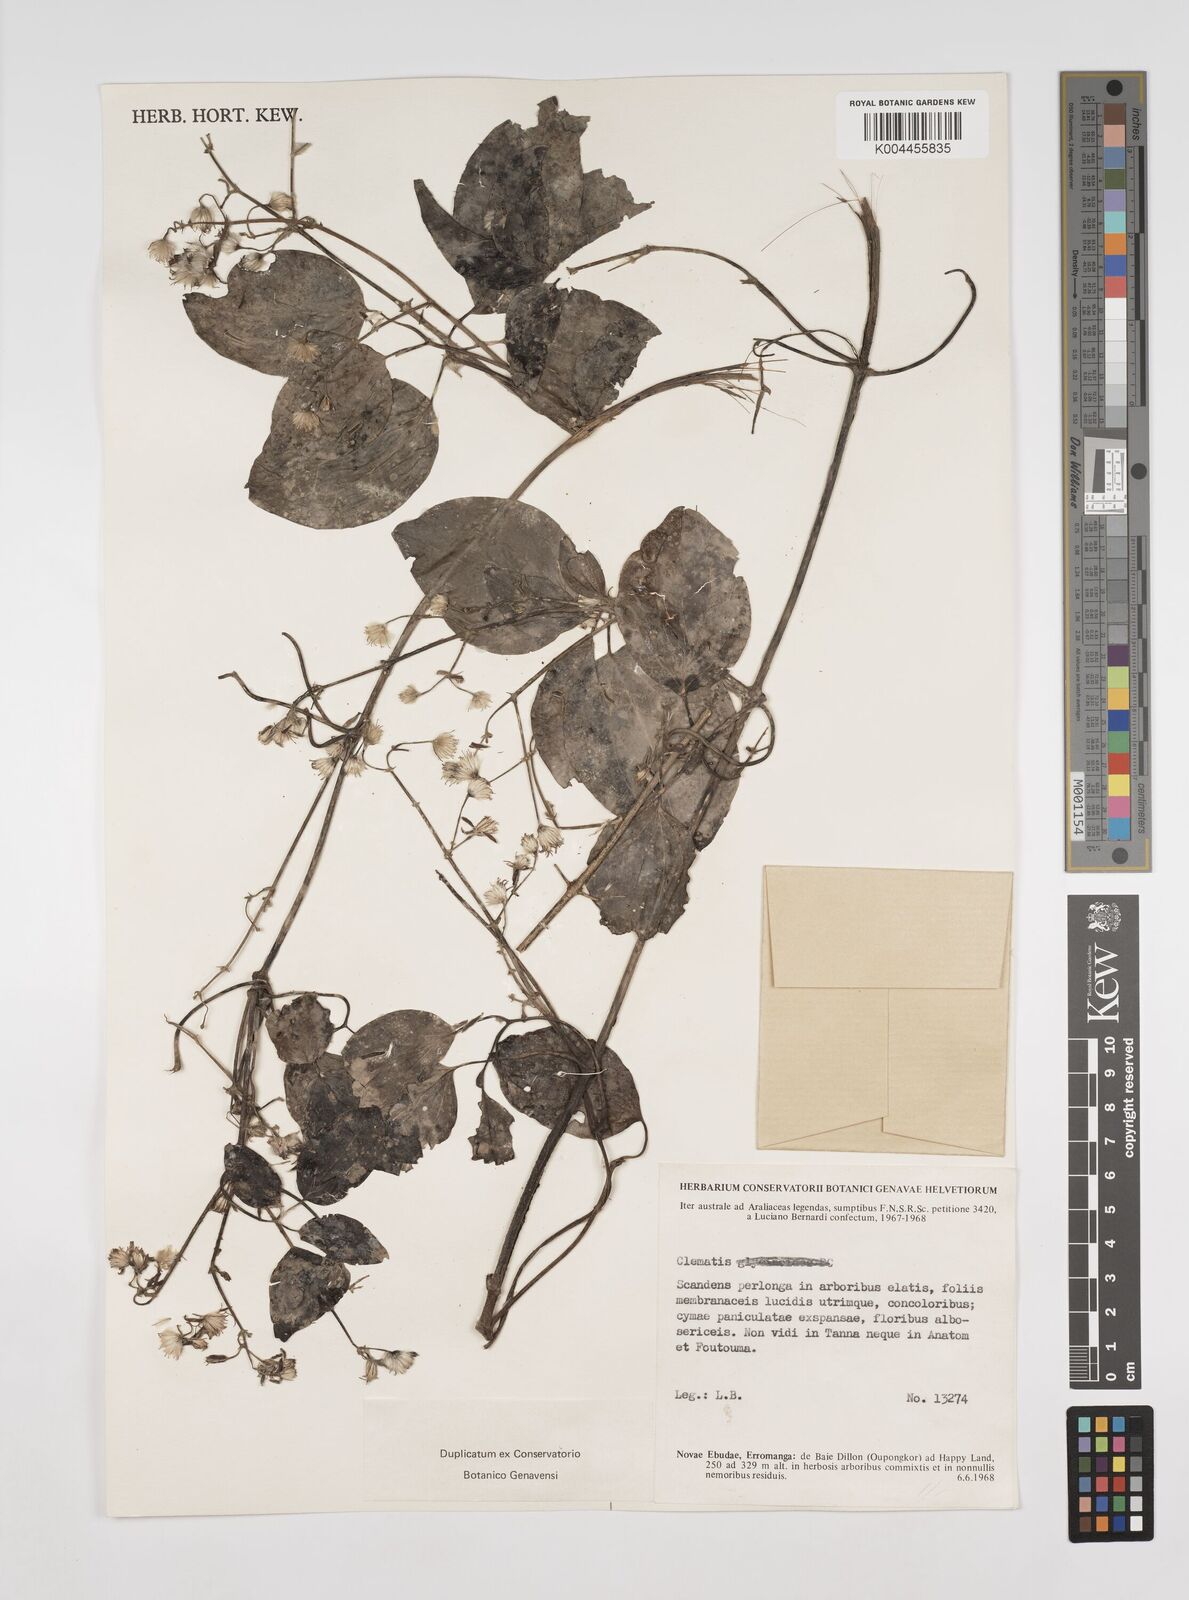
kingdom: Plantae
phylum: Tracheophyta
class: Magnoliopsida
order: Ranunculales
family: Ranunculaceae
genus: Clematis
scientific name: Clematis pickeringii
